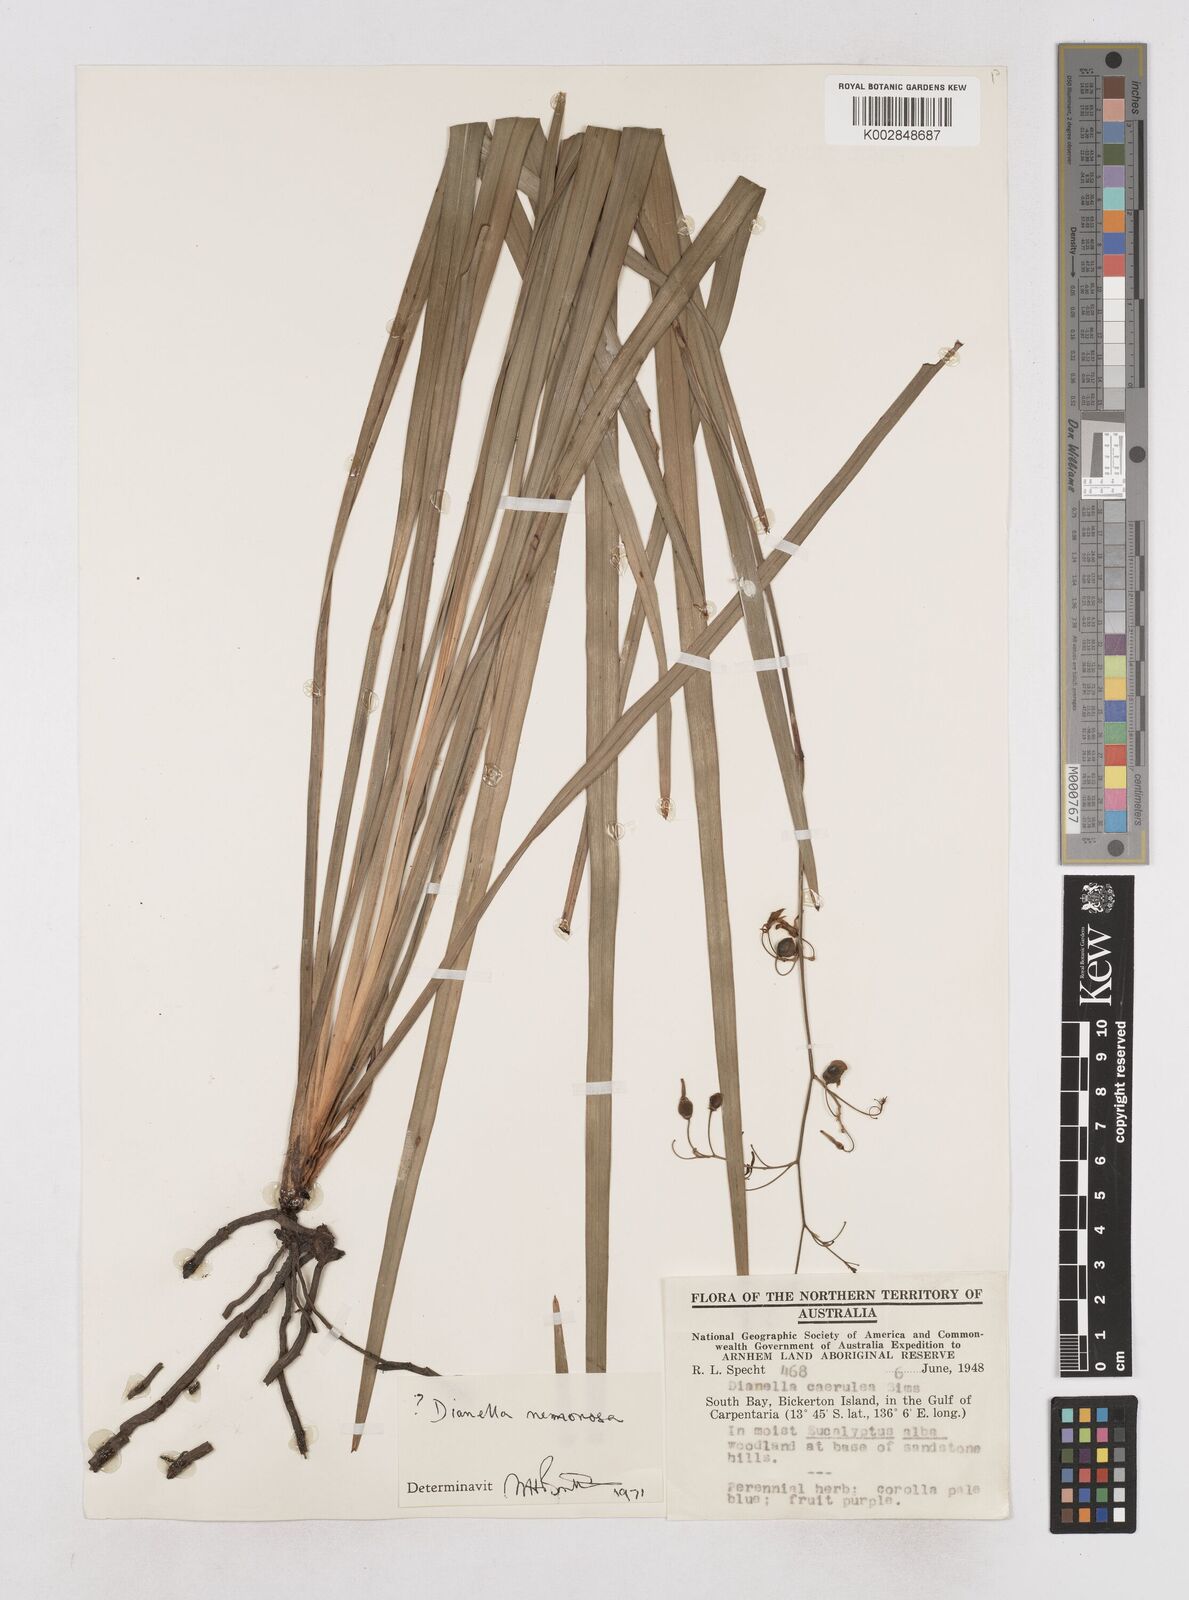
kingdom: Plantae
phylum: Tracheophyta
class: Liliopsida
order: Asparagales
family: Asphodelaceae
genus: Dianella
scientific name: Dianella ensifolia
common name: New zealand lilyplant
